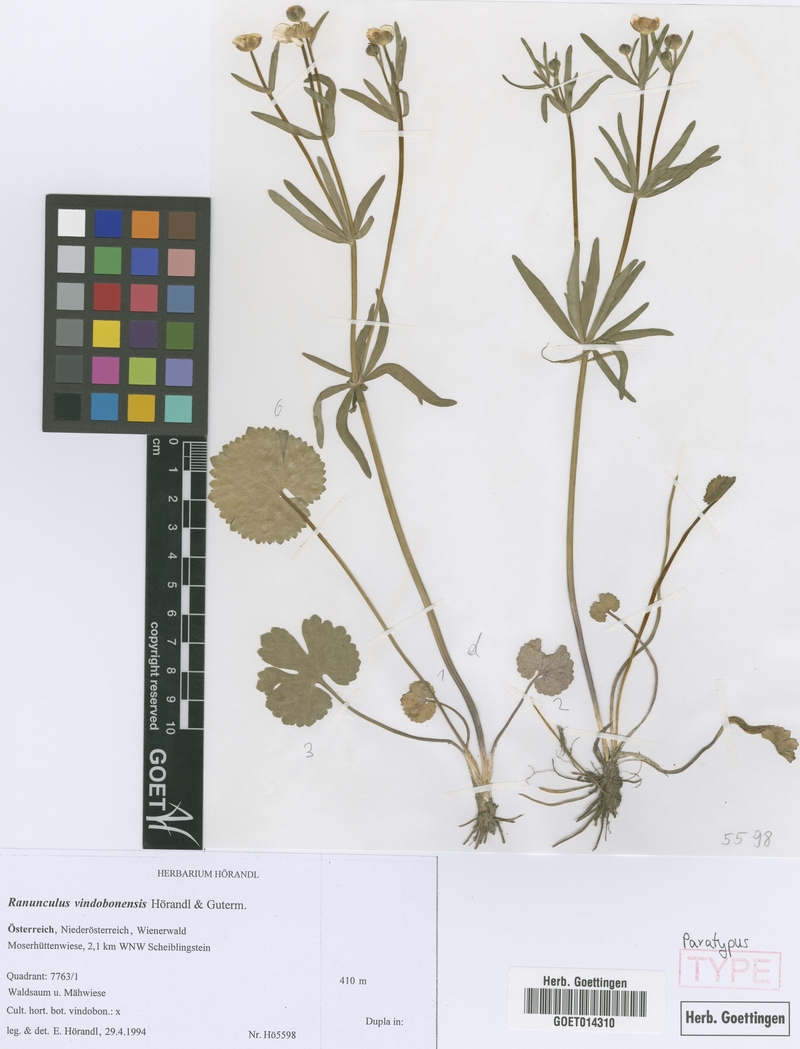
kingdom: Plantae
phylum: Tracheophyta
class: Magnoliopsida
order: Ranunculales
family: Ranunculaceae
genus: Ranunculus
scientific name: Ranunculus vindobonensis
